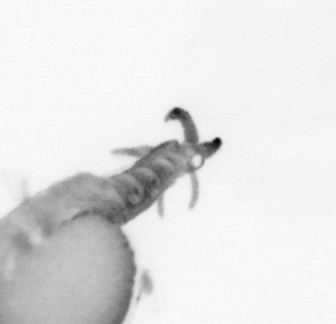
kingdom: Animalia
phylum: Annelida
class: Polychaeta
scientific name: Polychaeta
